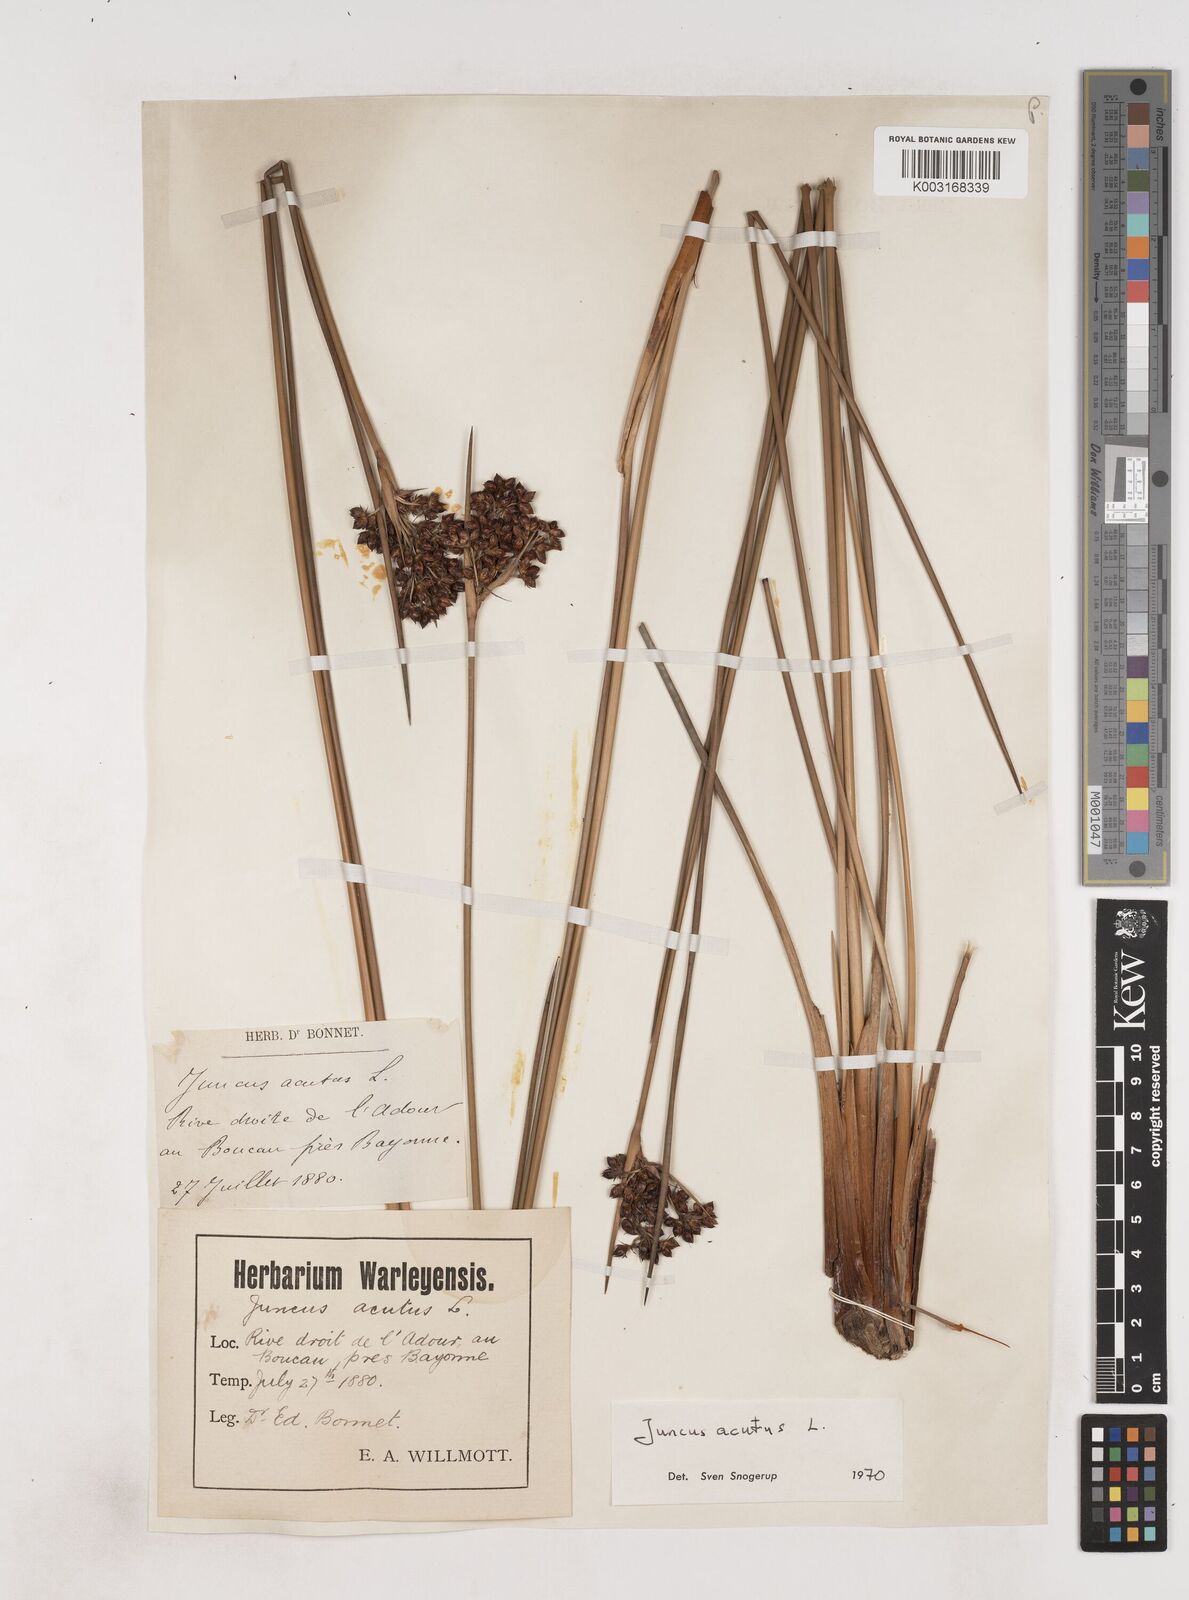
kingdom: Plantae
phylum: Tracheophyta
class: Liliopsida
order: Poales
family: Juncaceae
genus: Juncus
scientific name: Juncus acutus
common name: Sharp rush
